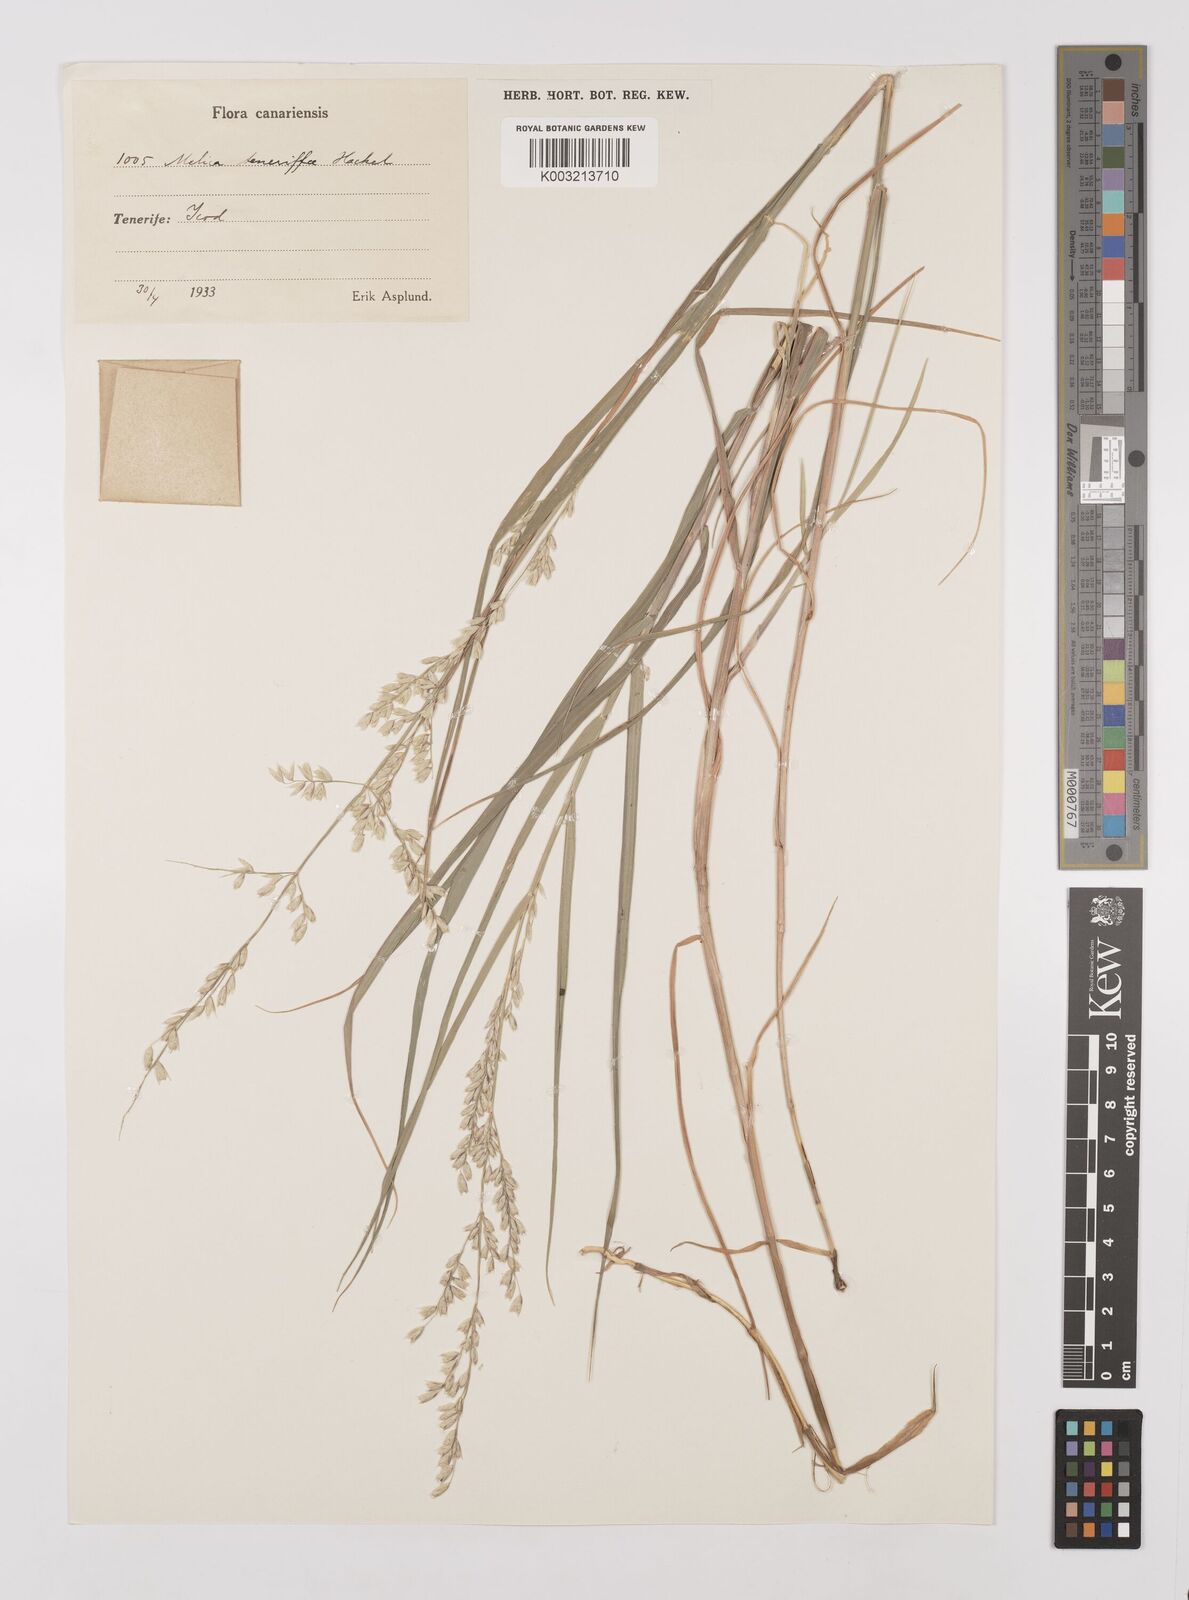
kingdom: Plantae
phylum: Tracheophyta
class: Liliopsida
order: Poales
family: Poaceae
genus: Melica
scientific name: Melica teneriffae
